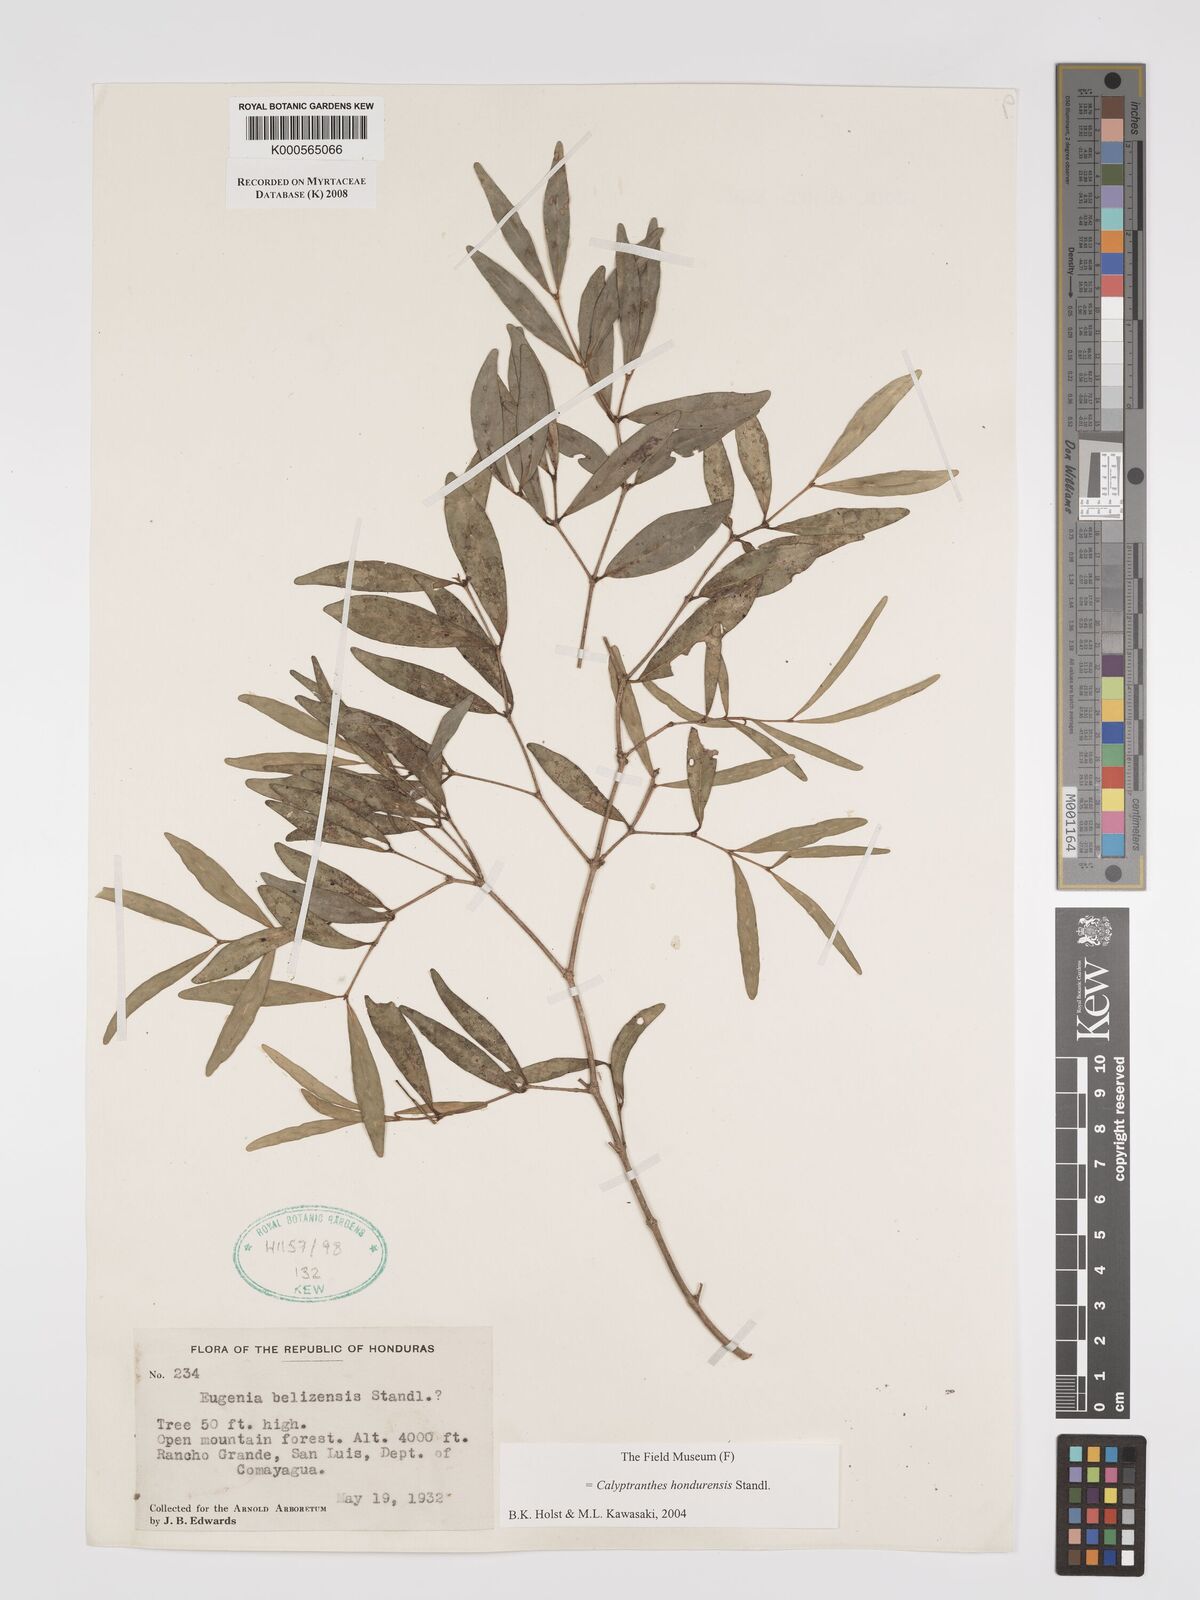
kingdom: Plantae
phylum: Tracheophyta
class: Magnoliopsida
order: Myrtales
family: Myrtaceae
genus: Myrcia
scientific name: Myrcia hondurensis
